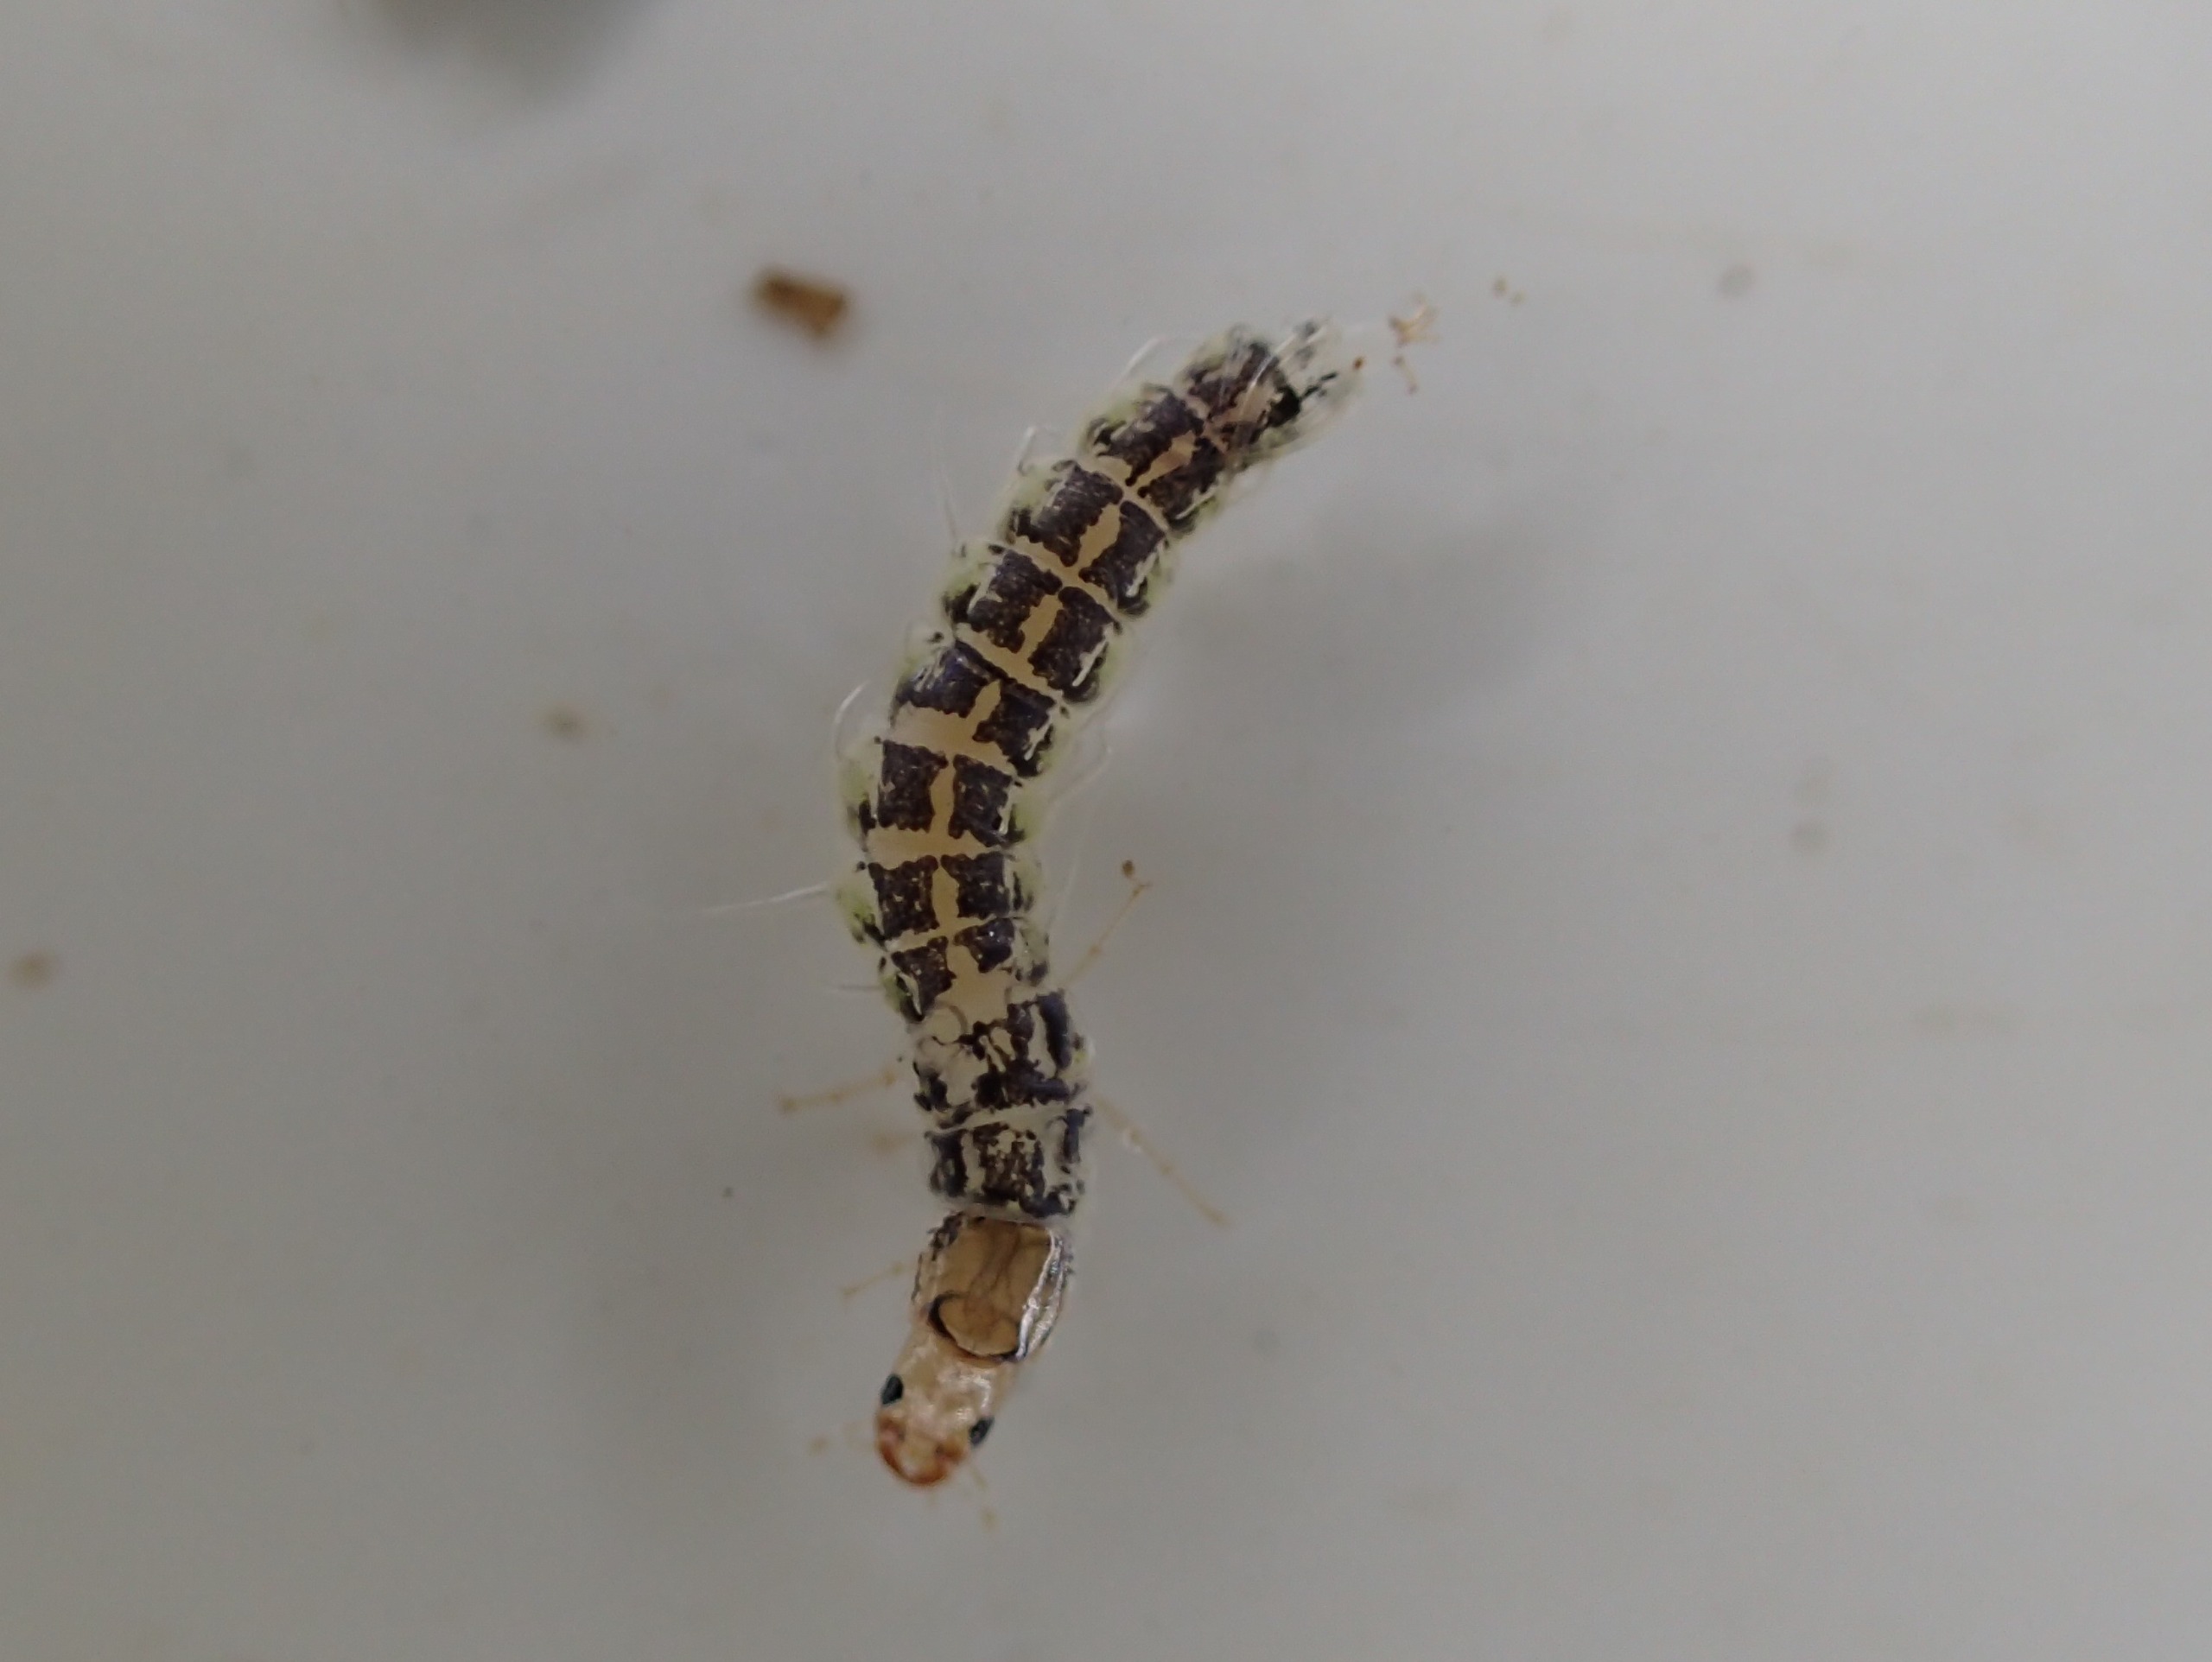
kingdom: Animalia
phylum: Arthropoda
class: Insecta
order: Coleoptera
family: Gyrinidae
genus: Orectochilus
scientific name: Orectochilus villosus
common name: Håret hvirvler
